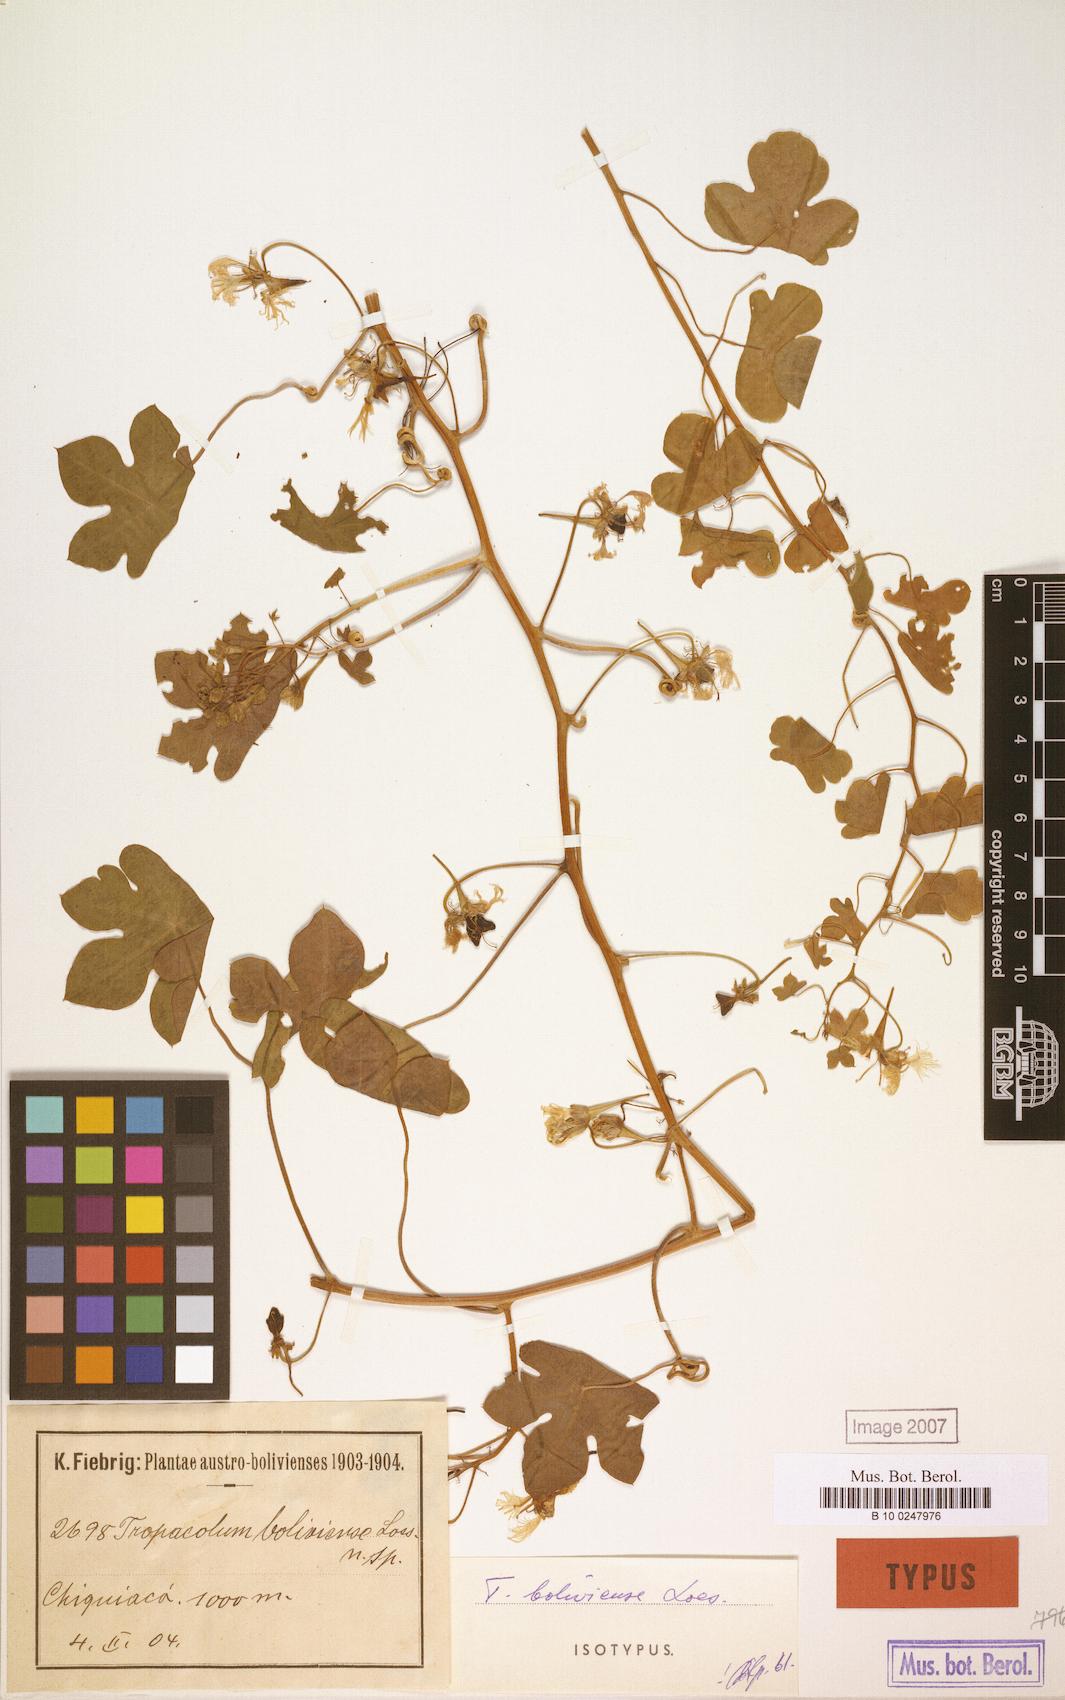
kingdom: Plantae
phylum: Tracheophyta
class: Magnoliopsida
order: Brassicales
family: Tropaeolaceae
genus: Tropaeolum
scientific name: Tropaeolum boliviense
